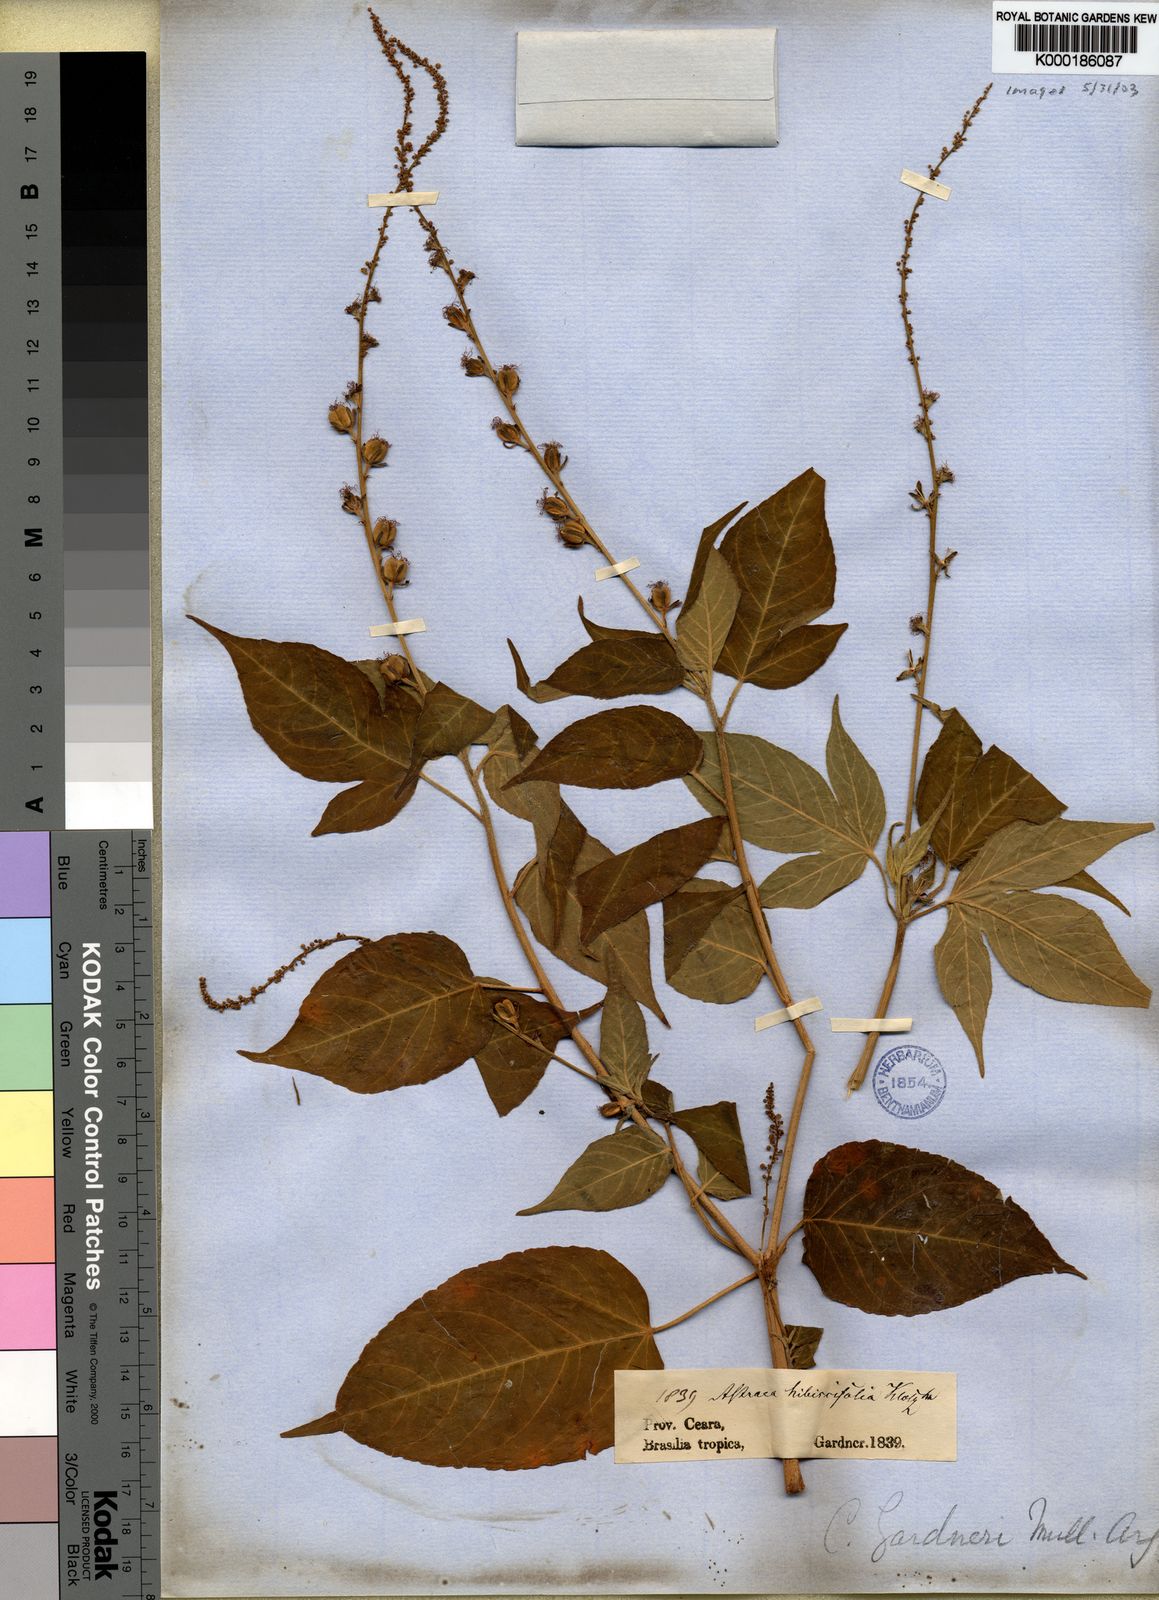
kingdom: Plantae
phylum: Tracheophyta
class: Magnoliopsida
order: Malpighiales
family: Euphorbiaceae
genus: Astraea
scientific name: Astraea
